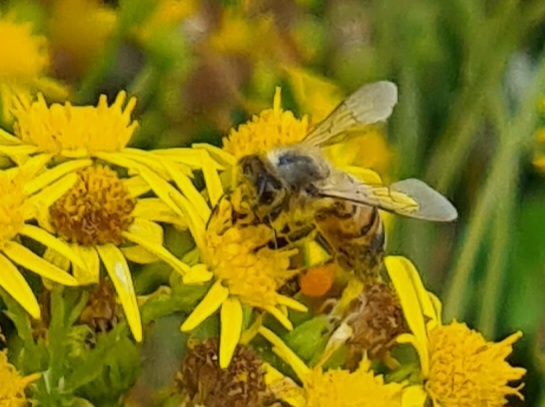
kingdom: Animalia
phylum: Arthropoda
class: Insecta
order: Hymenoptera
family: Apidae
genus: Apis
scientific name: Apis mellifera
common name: Honningbi
